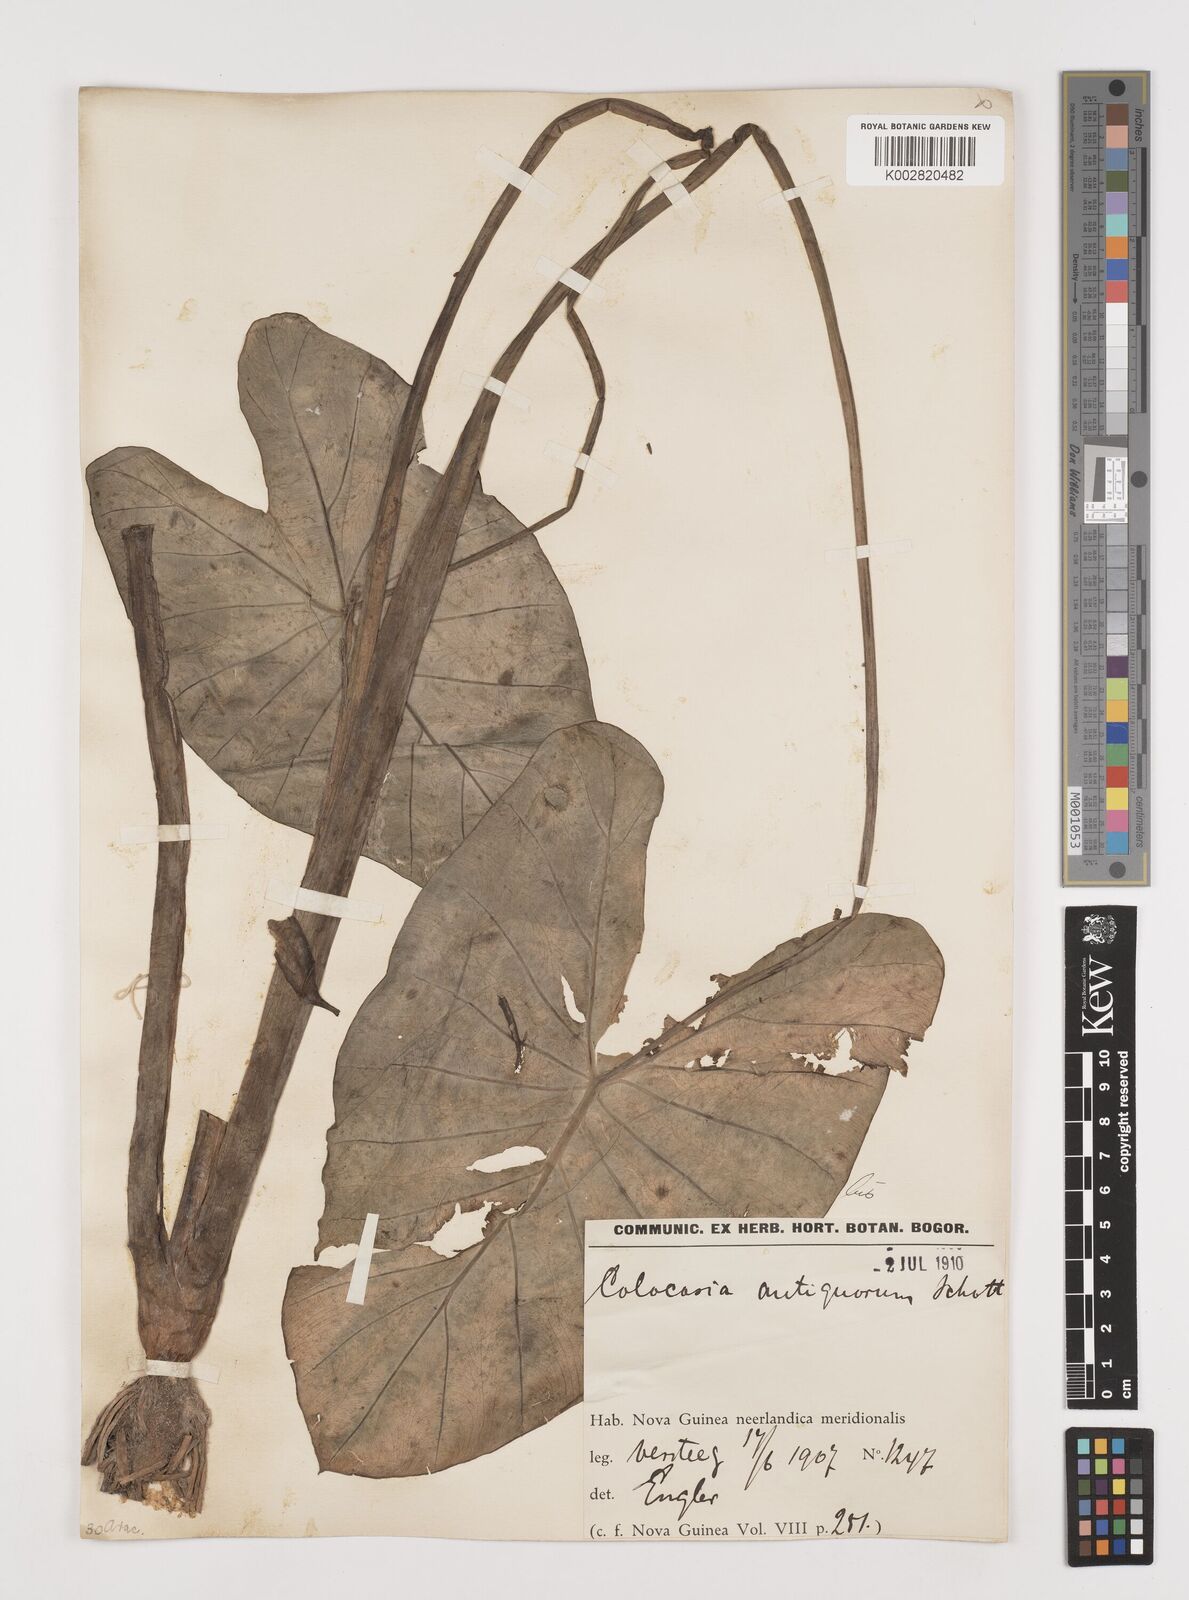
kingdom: Plantae
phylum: Tracheophyta
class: Liliopsida
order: Alismatales
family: Araceae
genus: Colocasia
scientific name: Colocasia esculenta
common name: Taro
